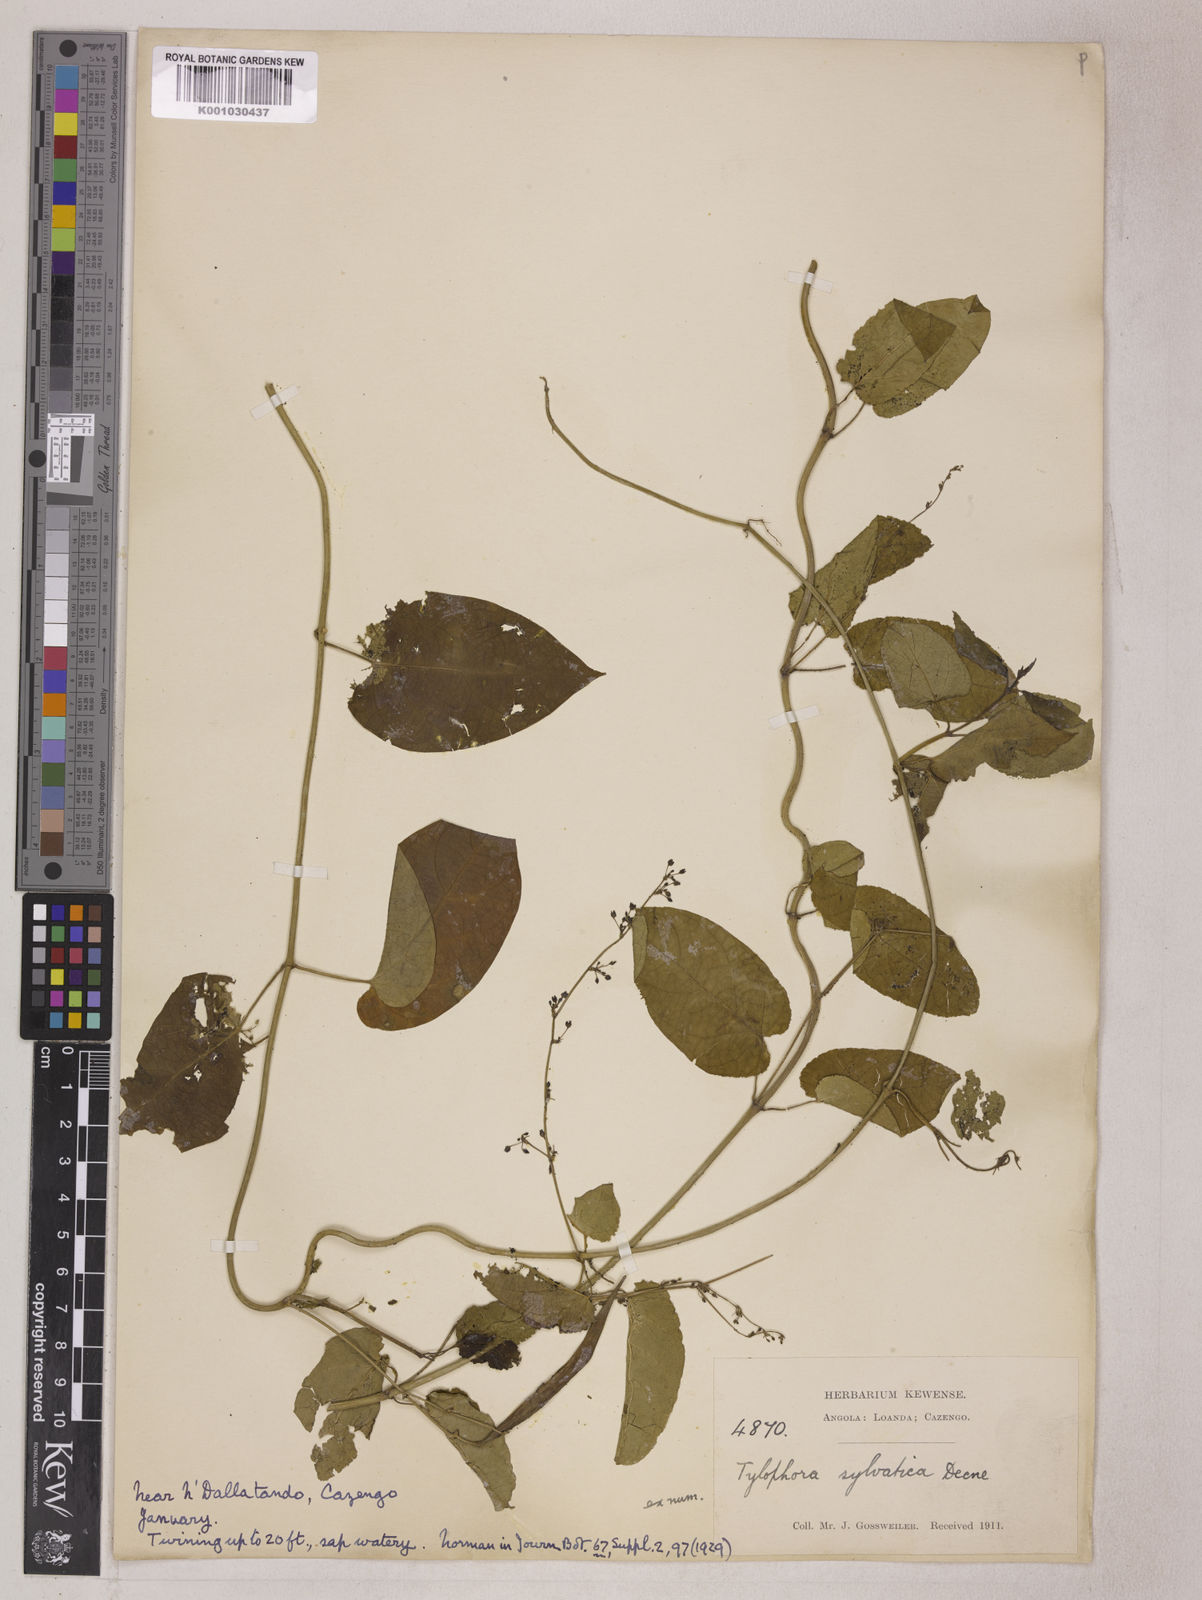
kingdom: Plantae
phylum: Tracheophyta
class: Magnoliopsida
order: Gentianales
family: Apocynaceae
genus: Vincetoxicum
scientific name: Vincetoxicum sylvaticum
